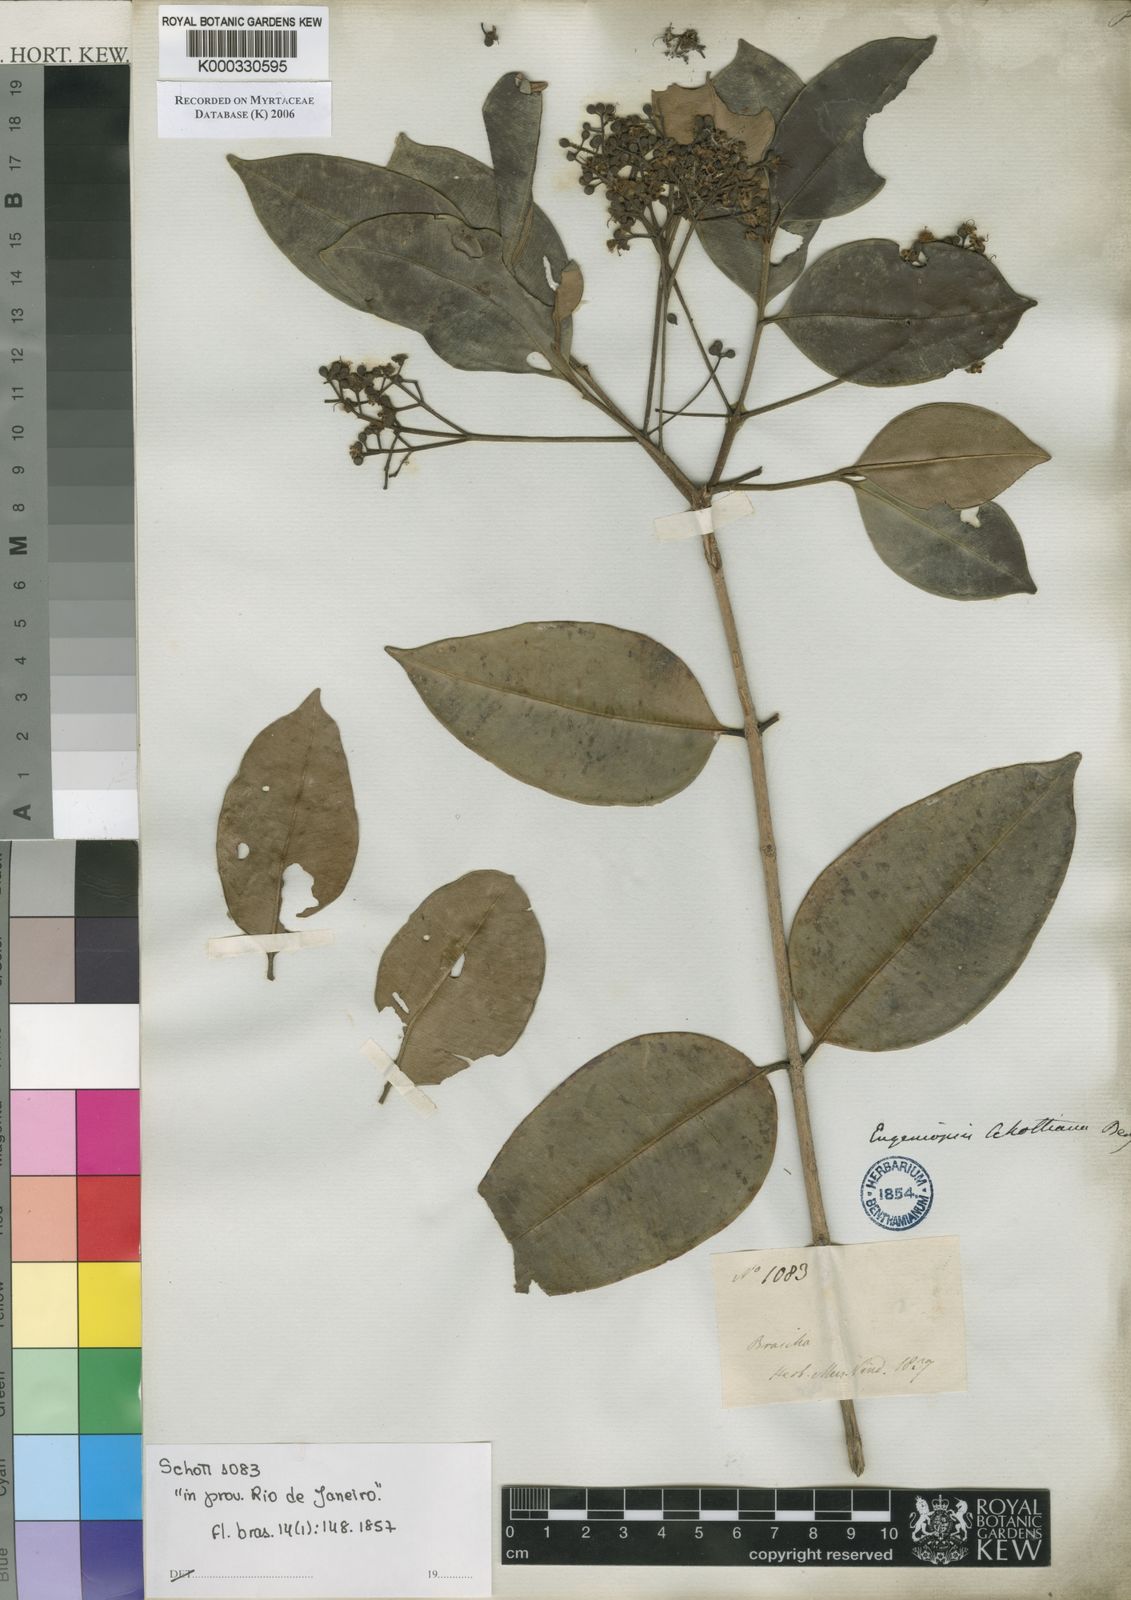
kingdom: Plantae
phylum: Tracheophyta
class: Magnoliopsida
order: Myrtales
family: Myrtaceae
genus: Myrcia
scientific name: Myrcia schottii
